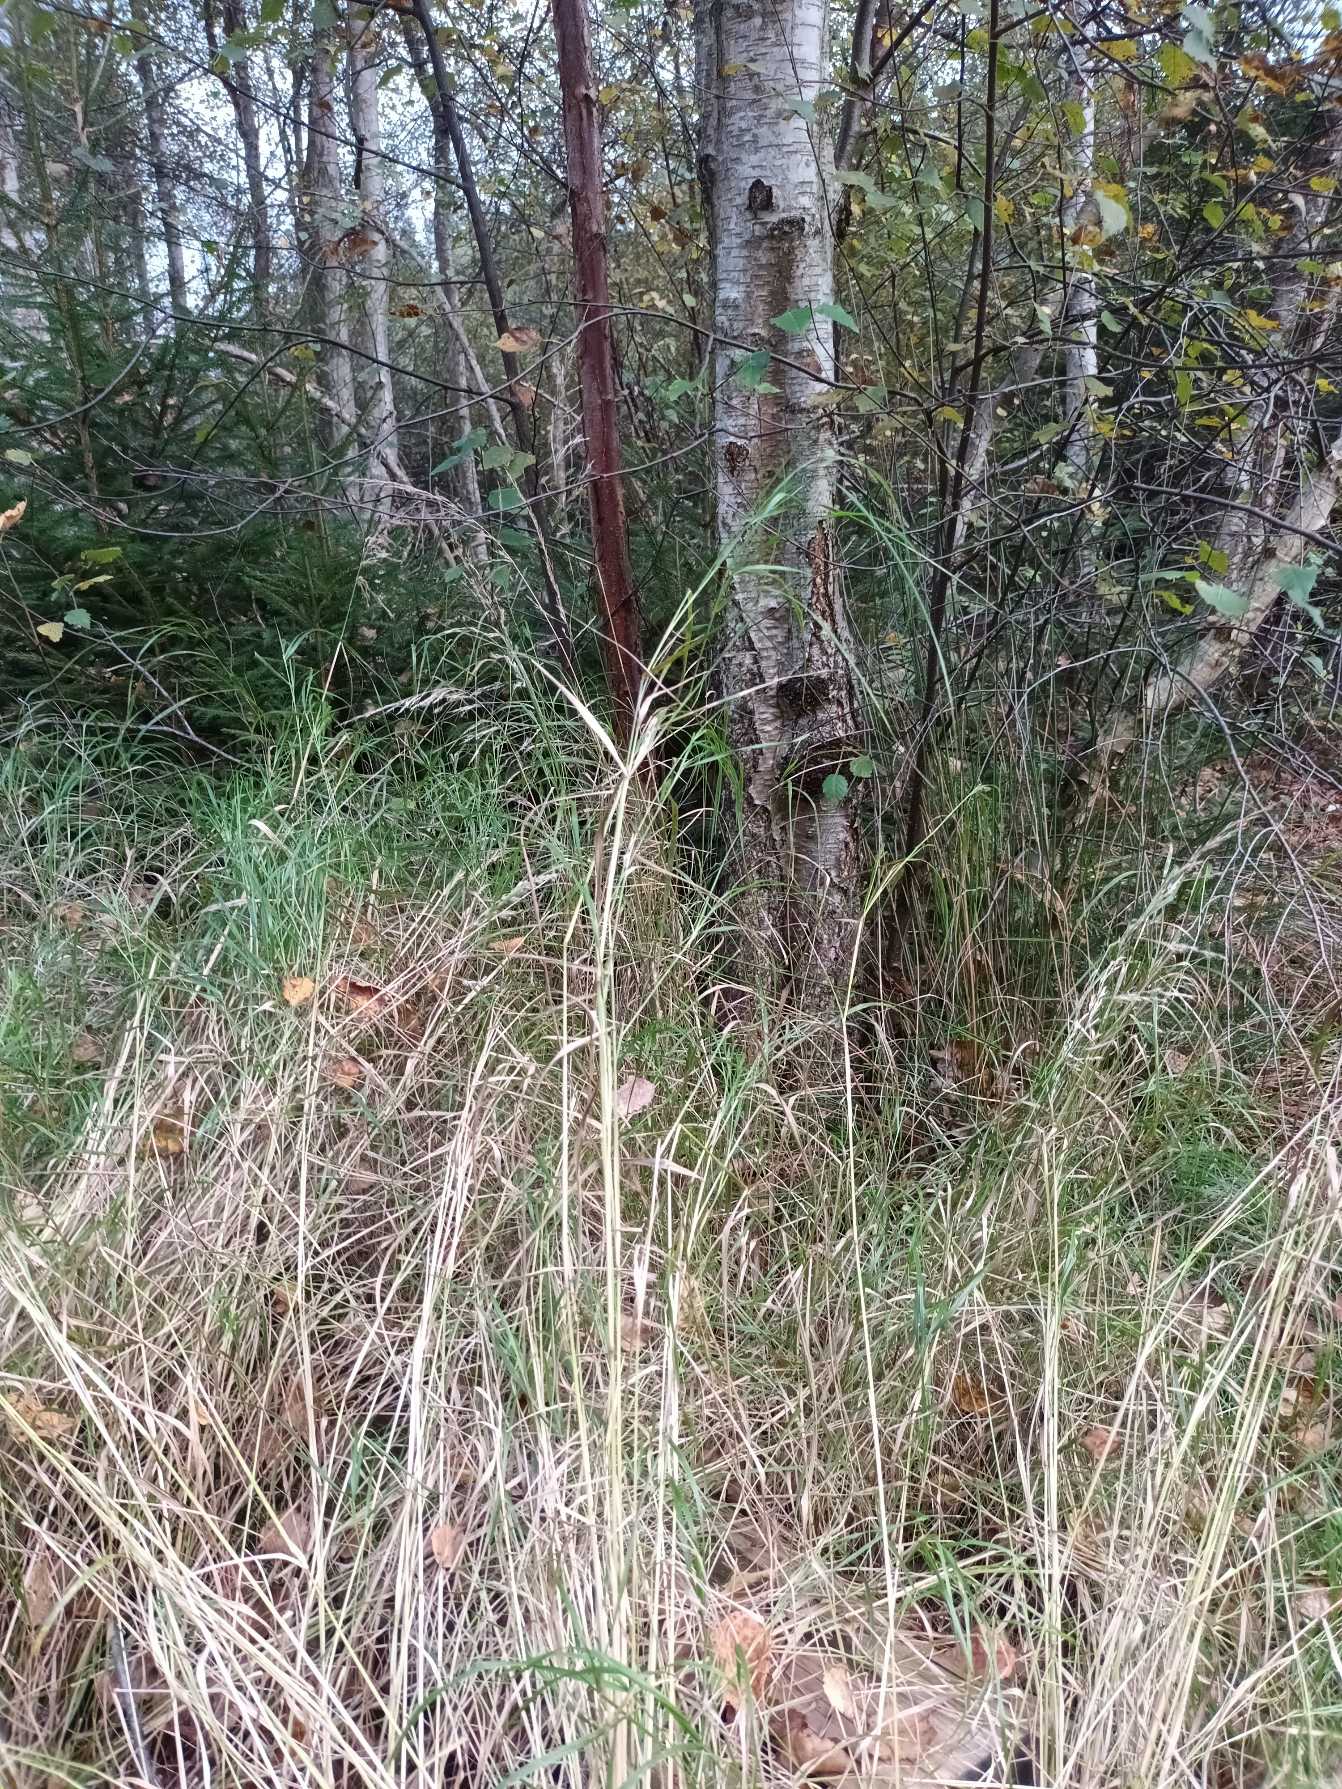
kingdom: Plantae
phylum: Tracheophyta
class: Liliopsida
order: Poales
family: Poaceae
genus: Calamagrostis
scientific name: Calamagrostis canescens
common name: Eng-rørhvene
